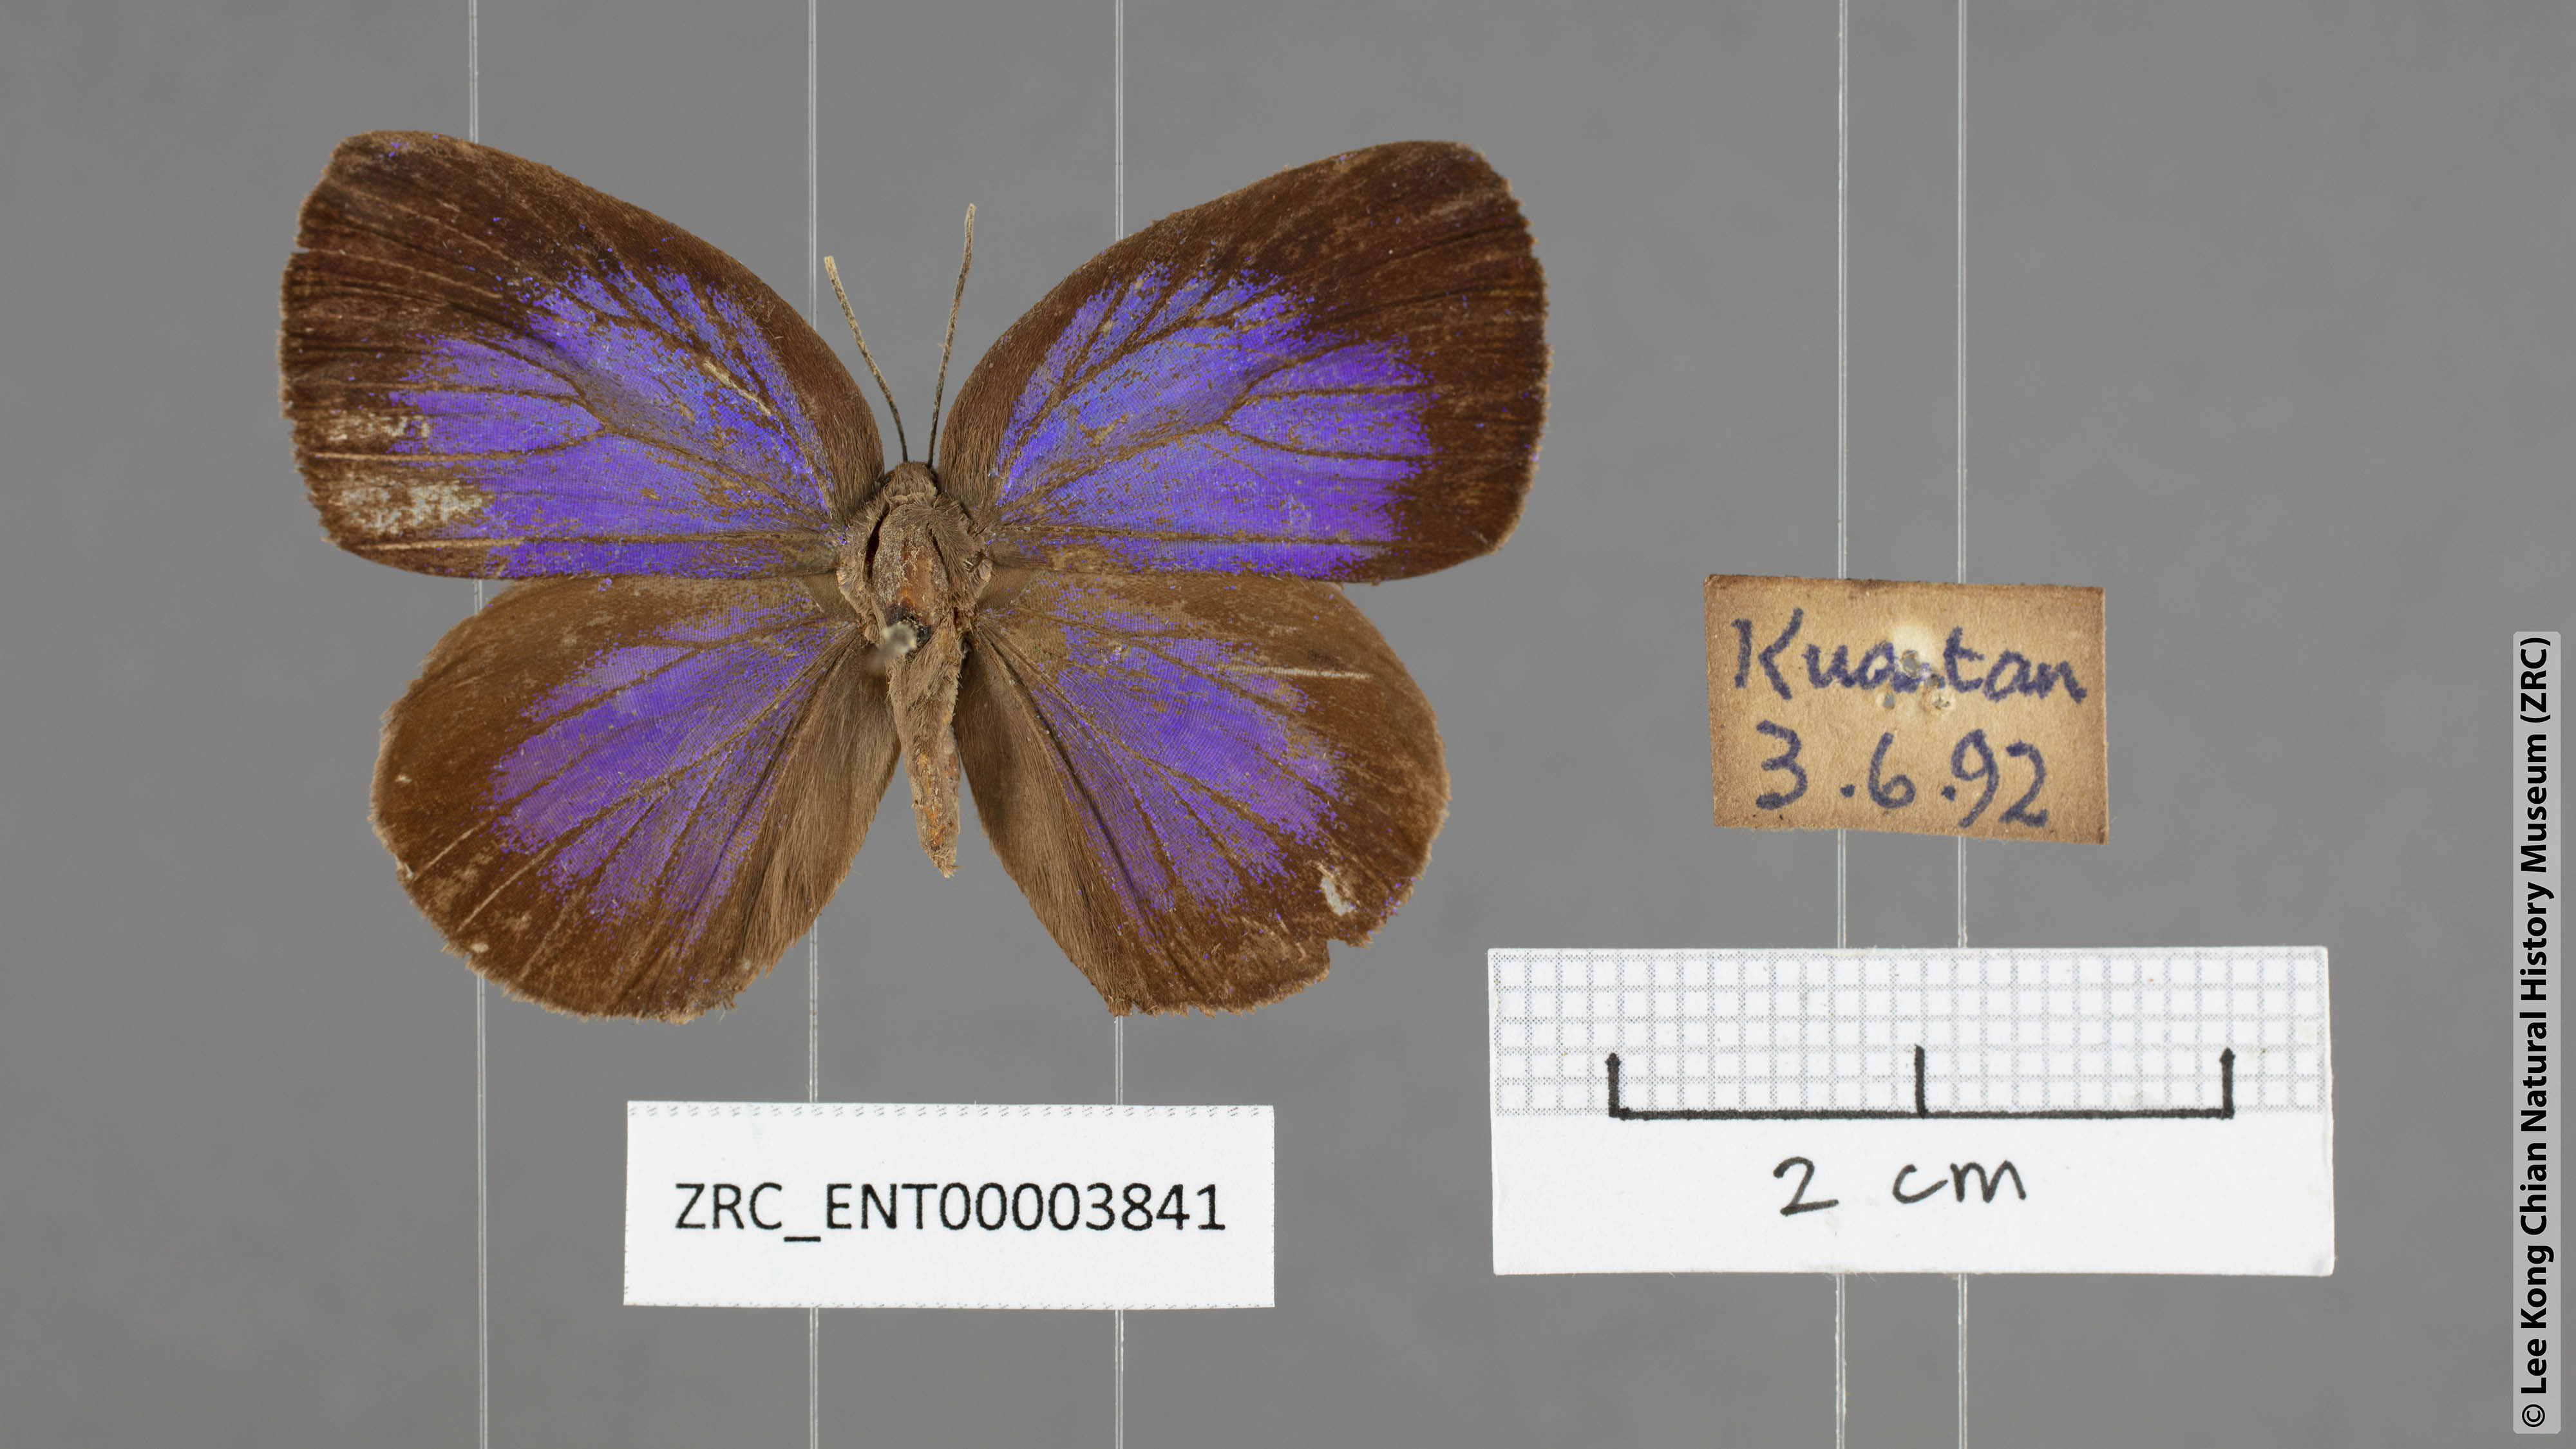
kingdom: Animalia
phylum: Arthropoda
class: Insecta
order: Lepidoptera
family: Lycaenidae
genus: Arhopala
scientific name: Arhopala amphimuta
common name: Broad yellow oakblue
